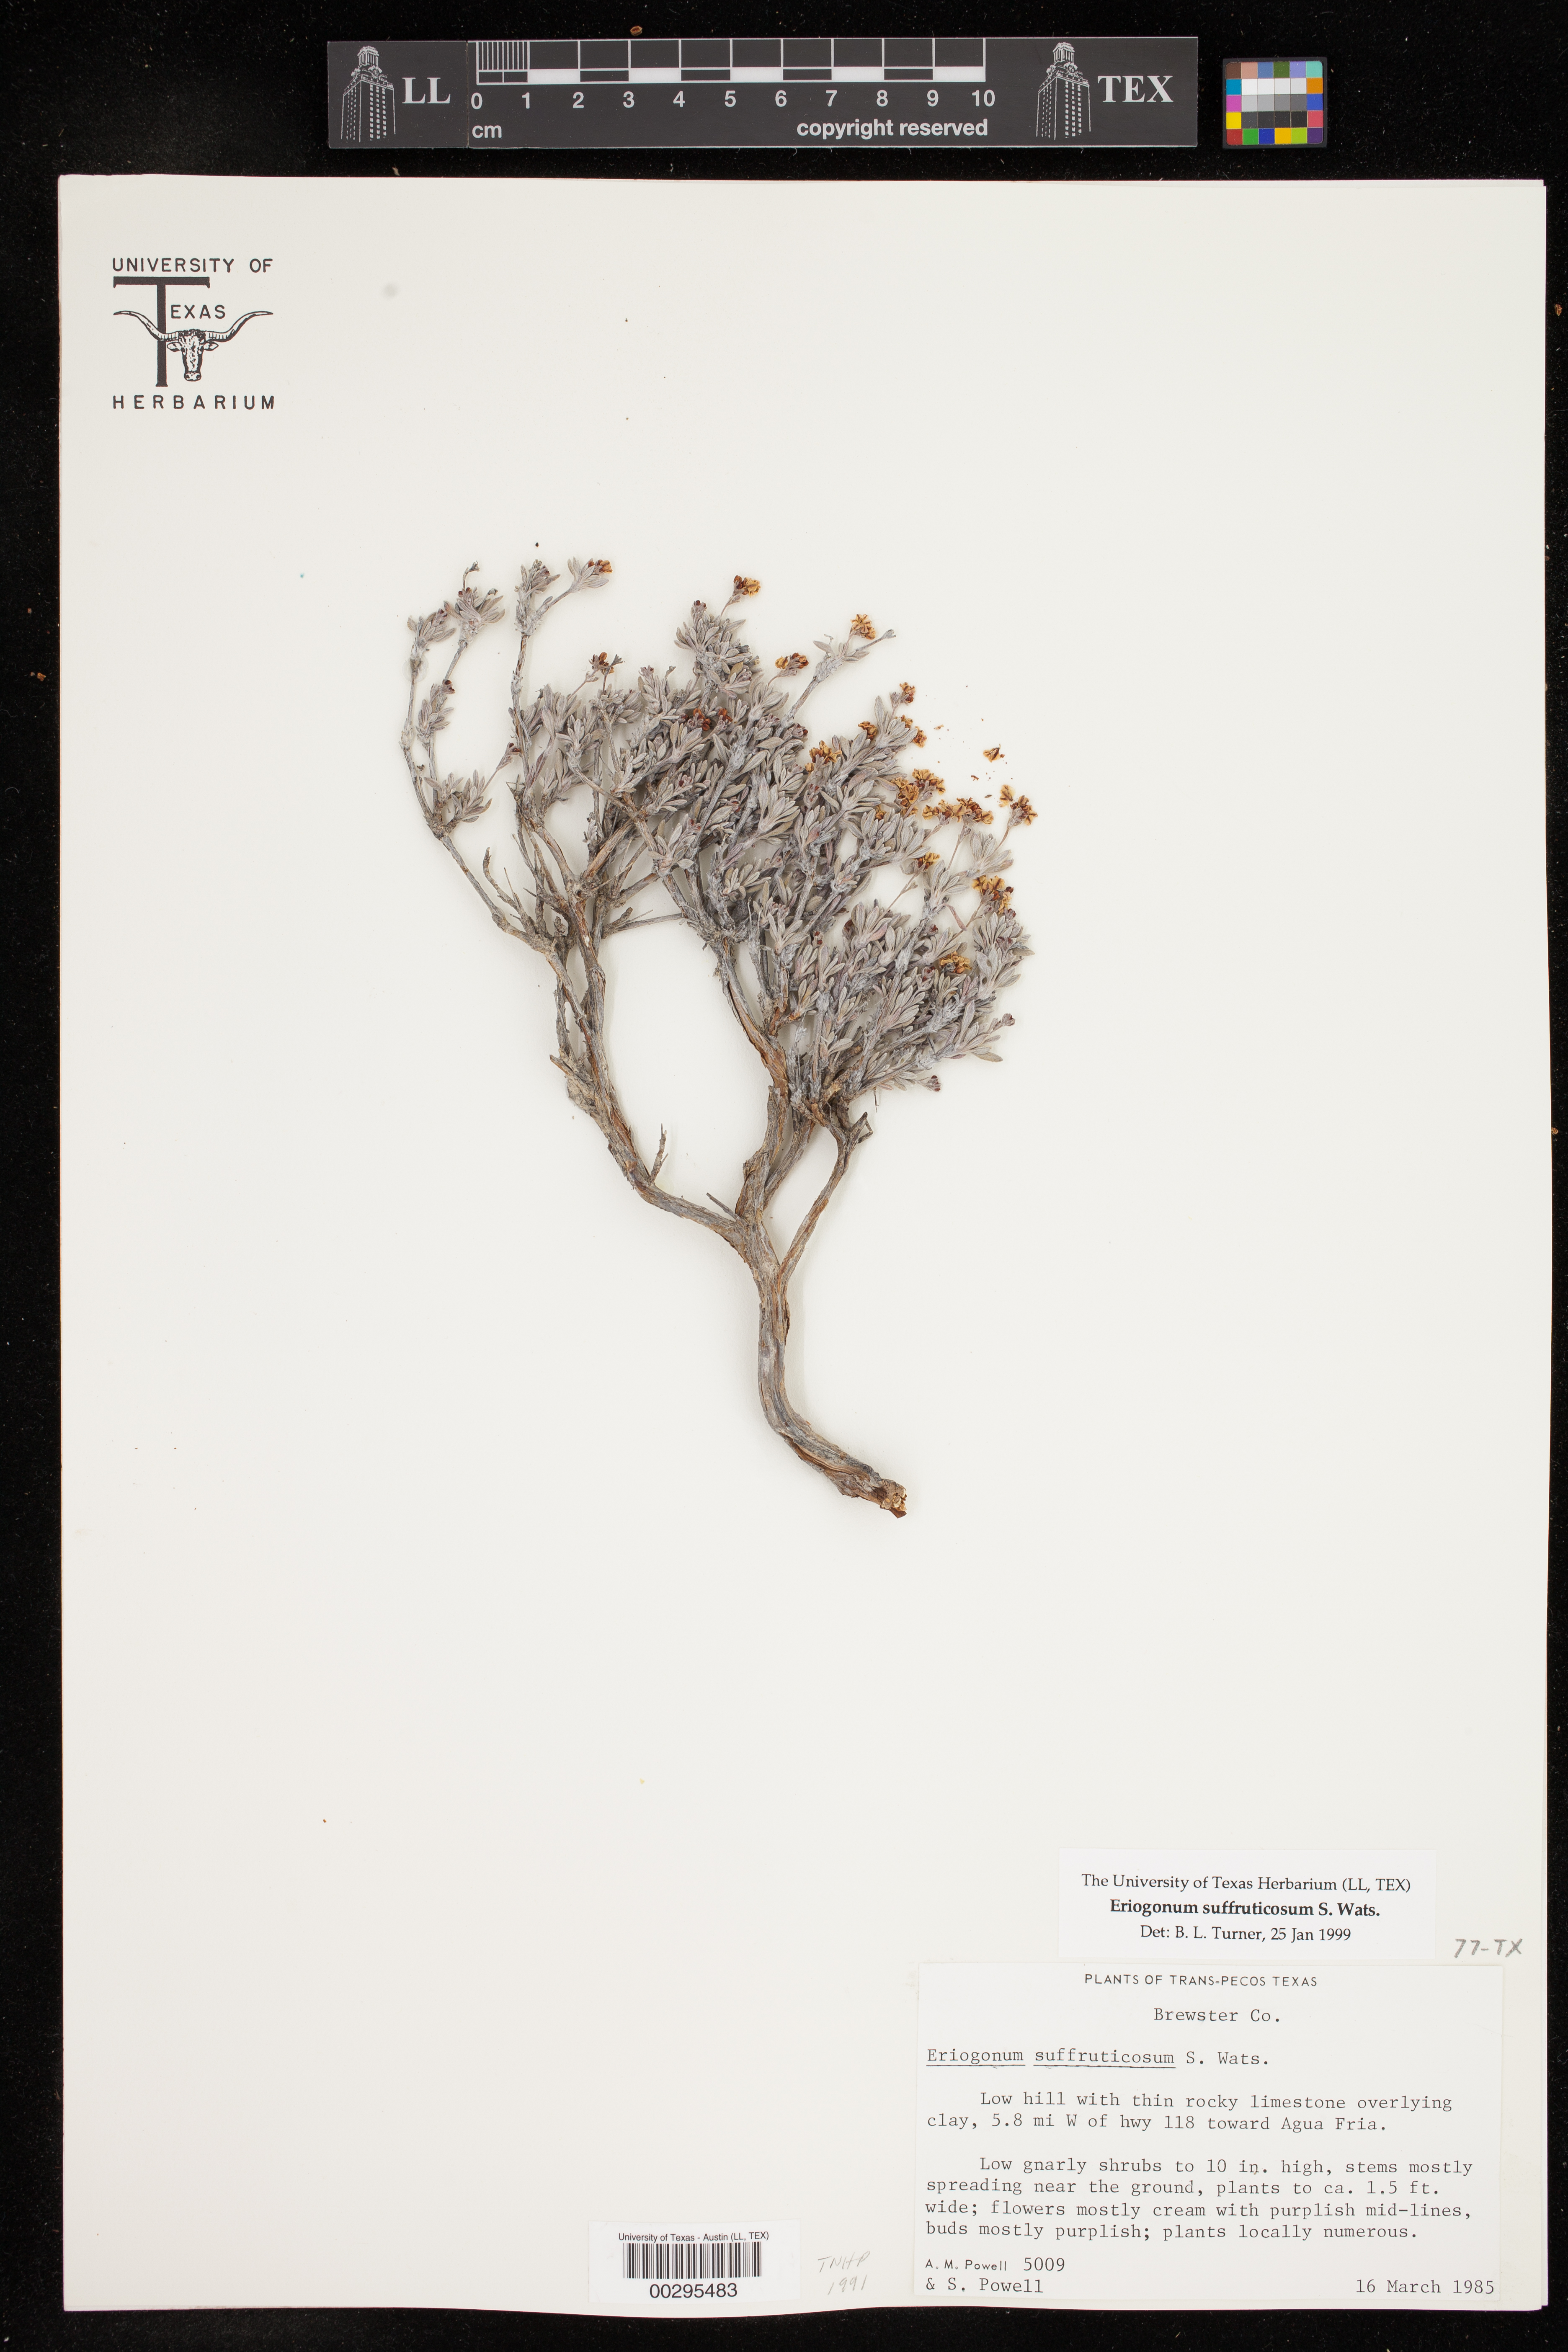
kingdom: Plantae
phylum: Tracheophyta
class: Magnoliopsida
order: Caryophyllales
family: Polygonaceae
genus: Eriogonum
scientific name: Eriogonum suffruticosum
